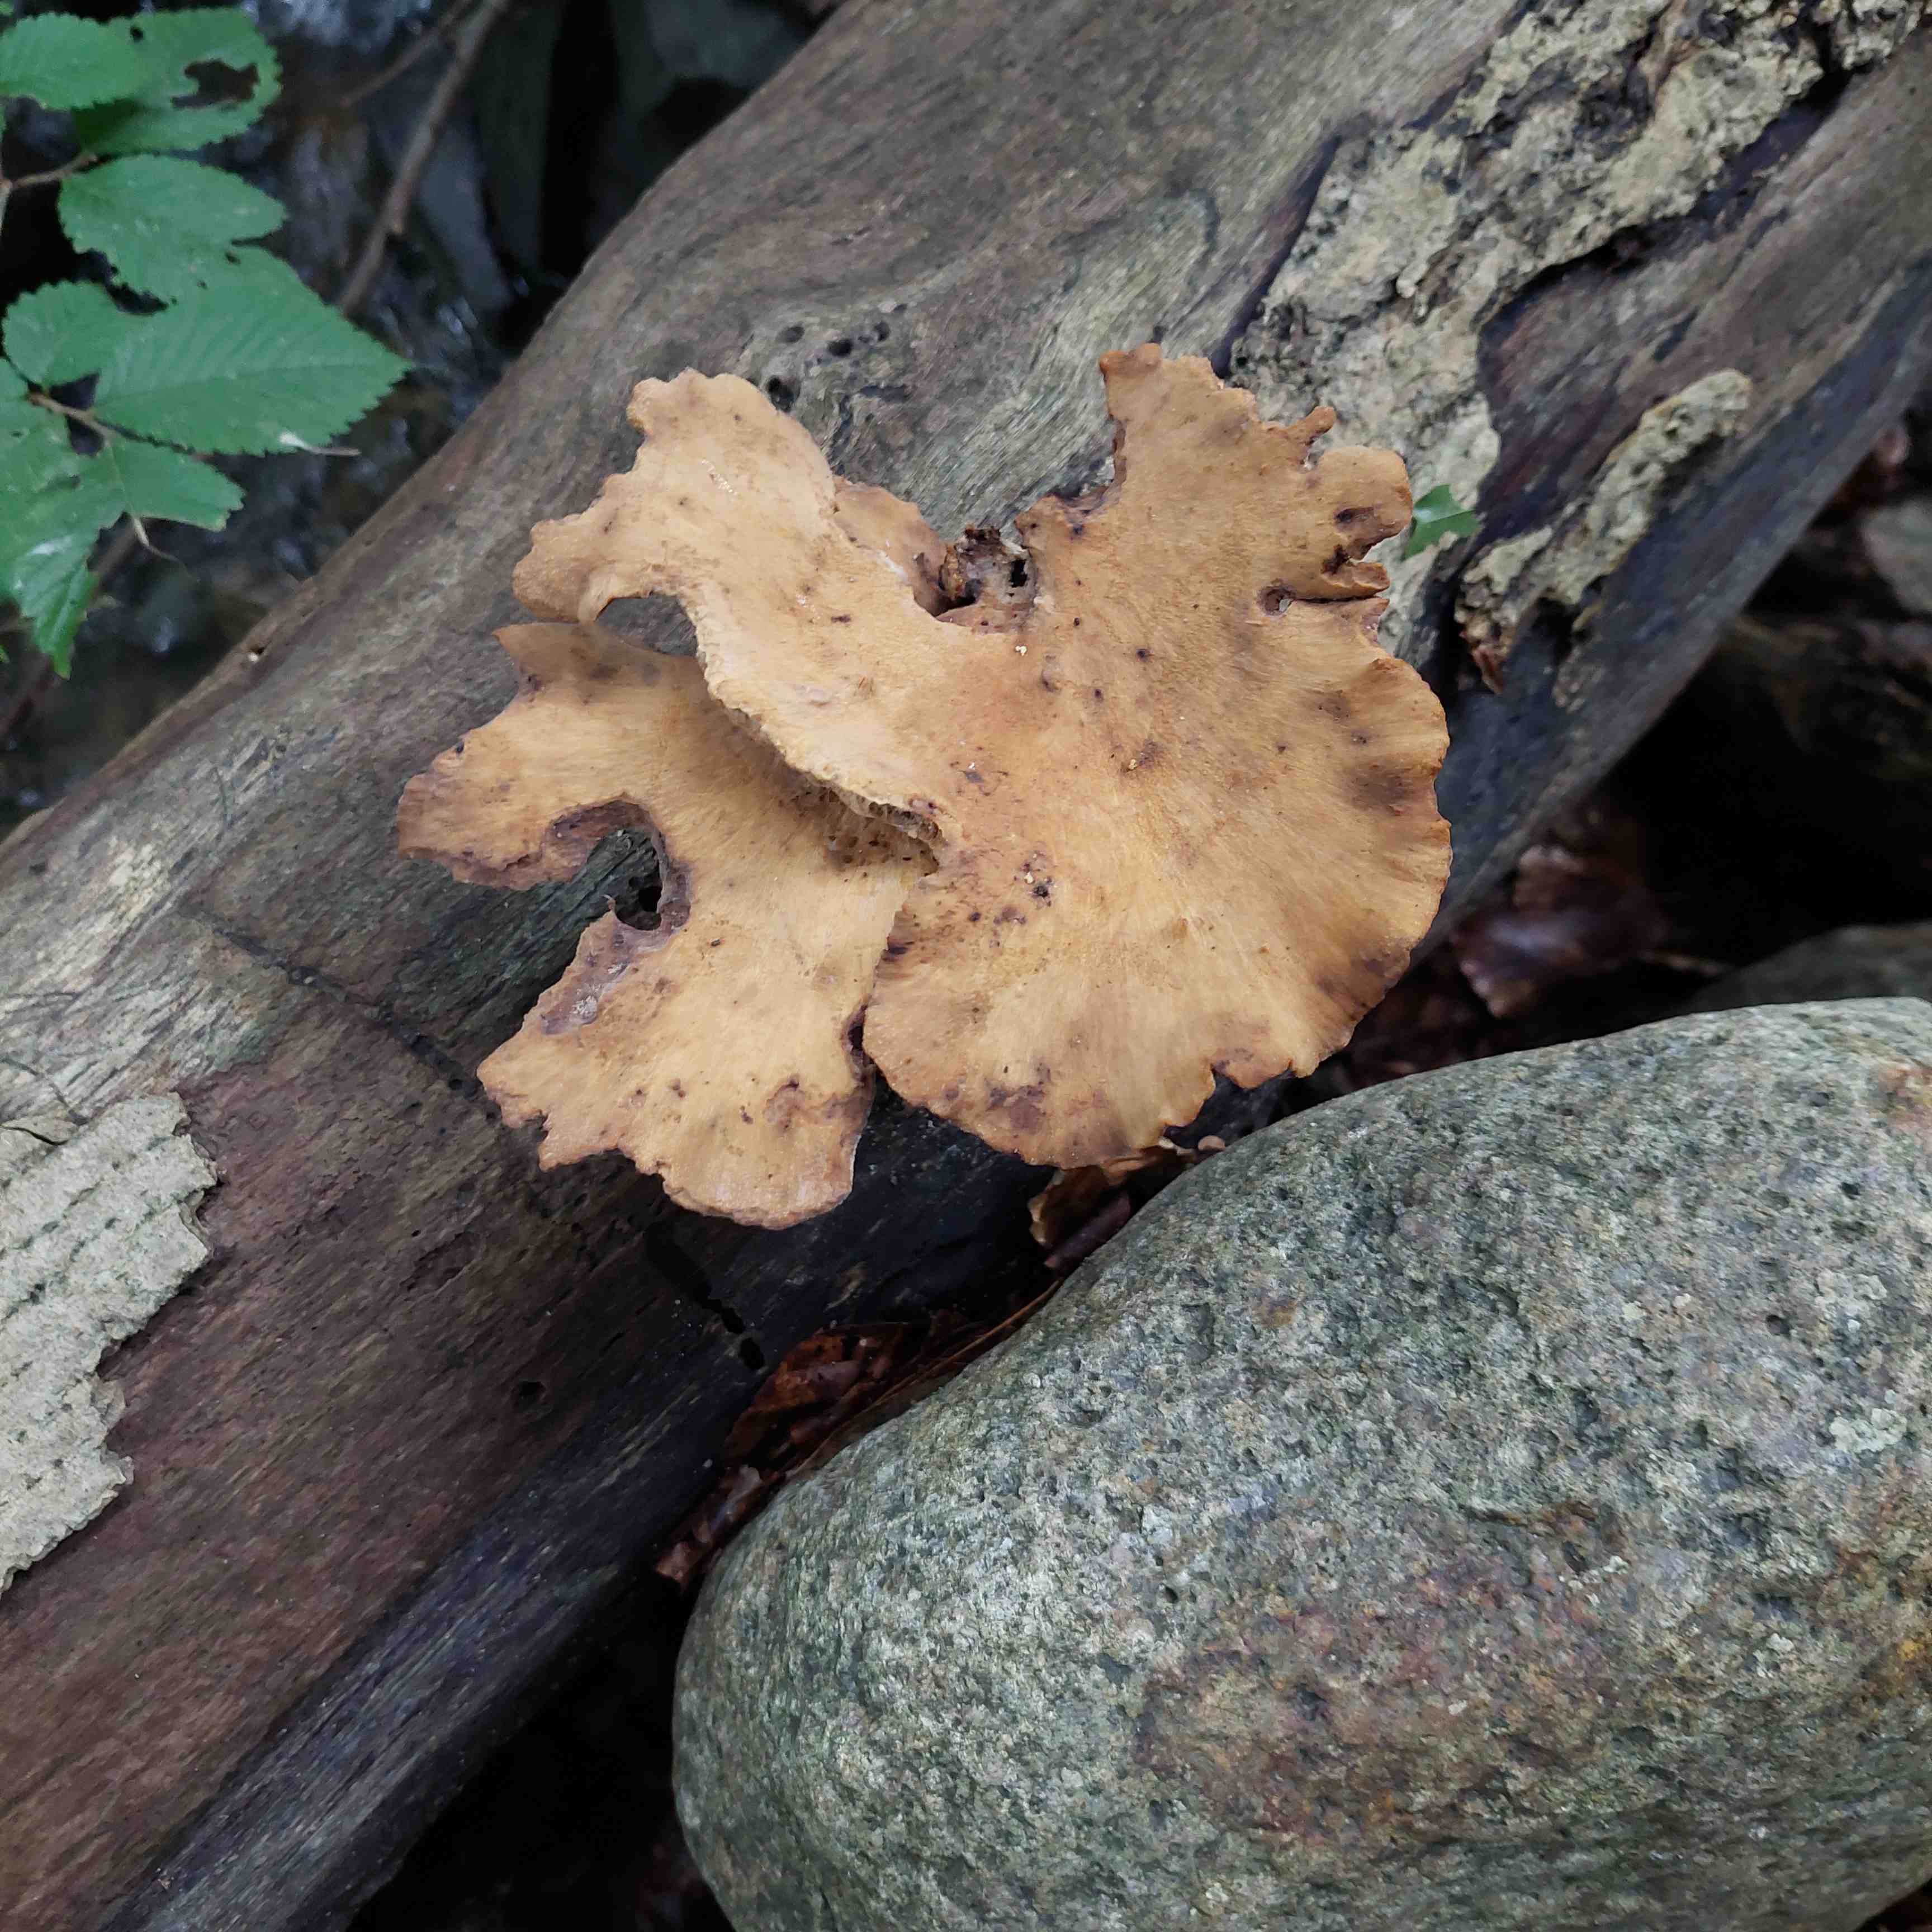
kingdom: Fungi
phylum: Basidiomycota
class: Agaricomycetes
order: Polyporales
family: Polyporaceae
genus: Cerioporus
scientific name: Cerioporus varius
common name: foranderlig stilkporesvamp
